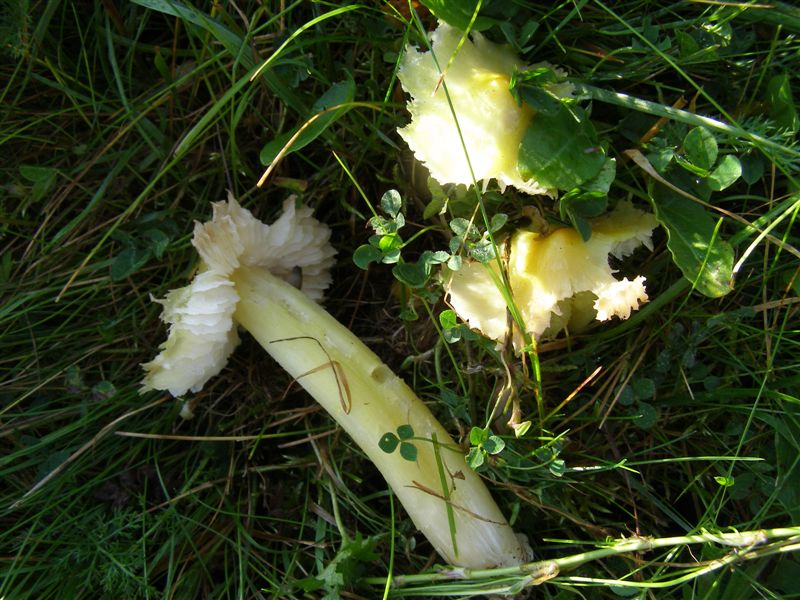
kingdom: Fungi
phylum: Basidiomycota
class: Agaricomycetes
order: Agaricales
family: Hygrophoraceae
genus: Hygrocybe
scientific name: Hygrocybe citrinovirens
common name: grøngul vokshat
